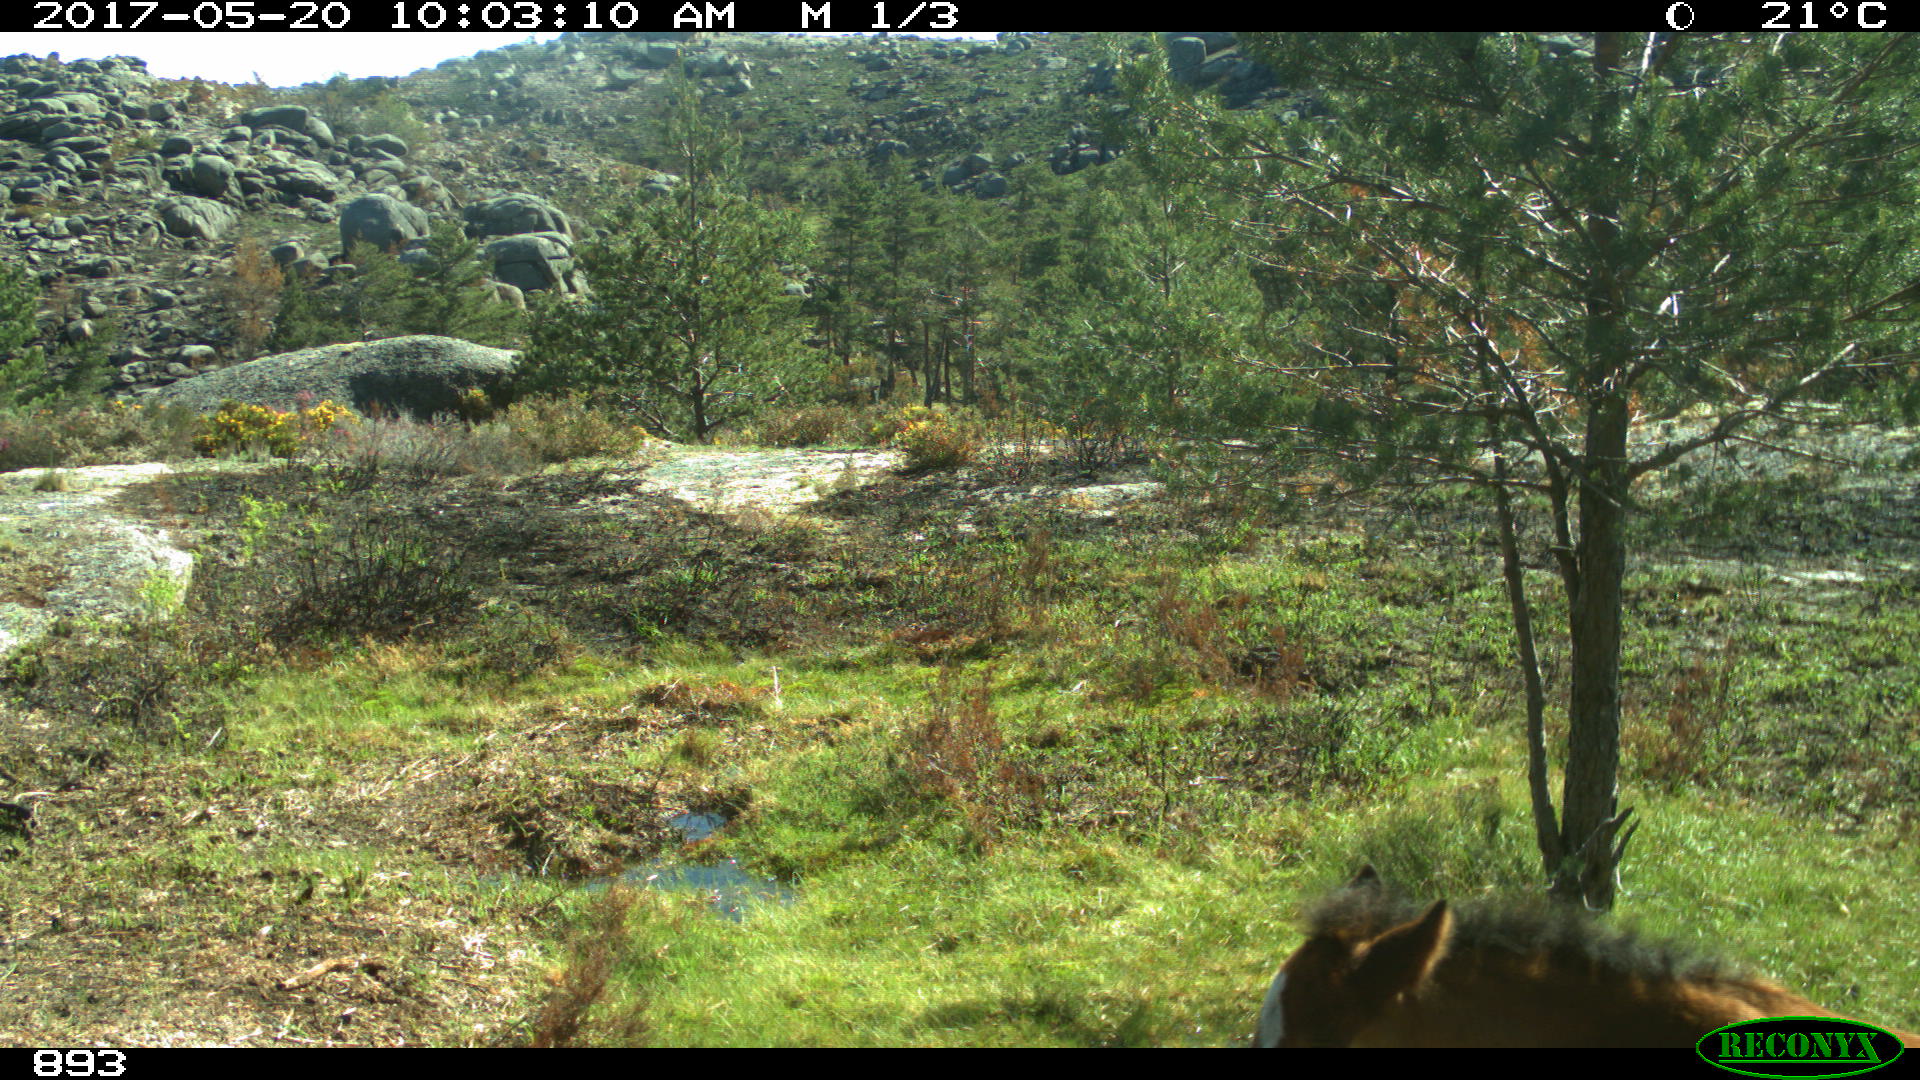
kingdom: Animalia
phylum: Chordata
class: Mammalia
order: Perissodactyla
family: Equidae
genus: Equus
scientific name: Equus caballus
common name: Horse
